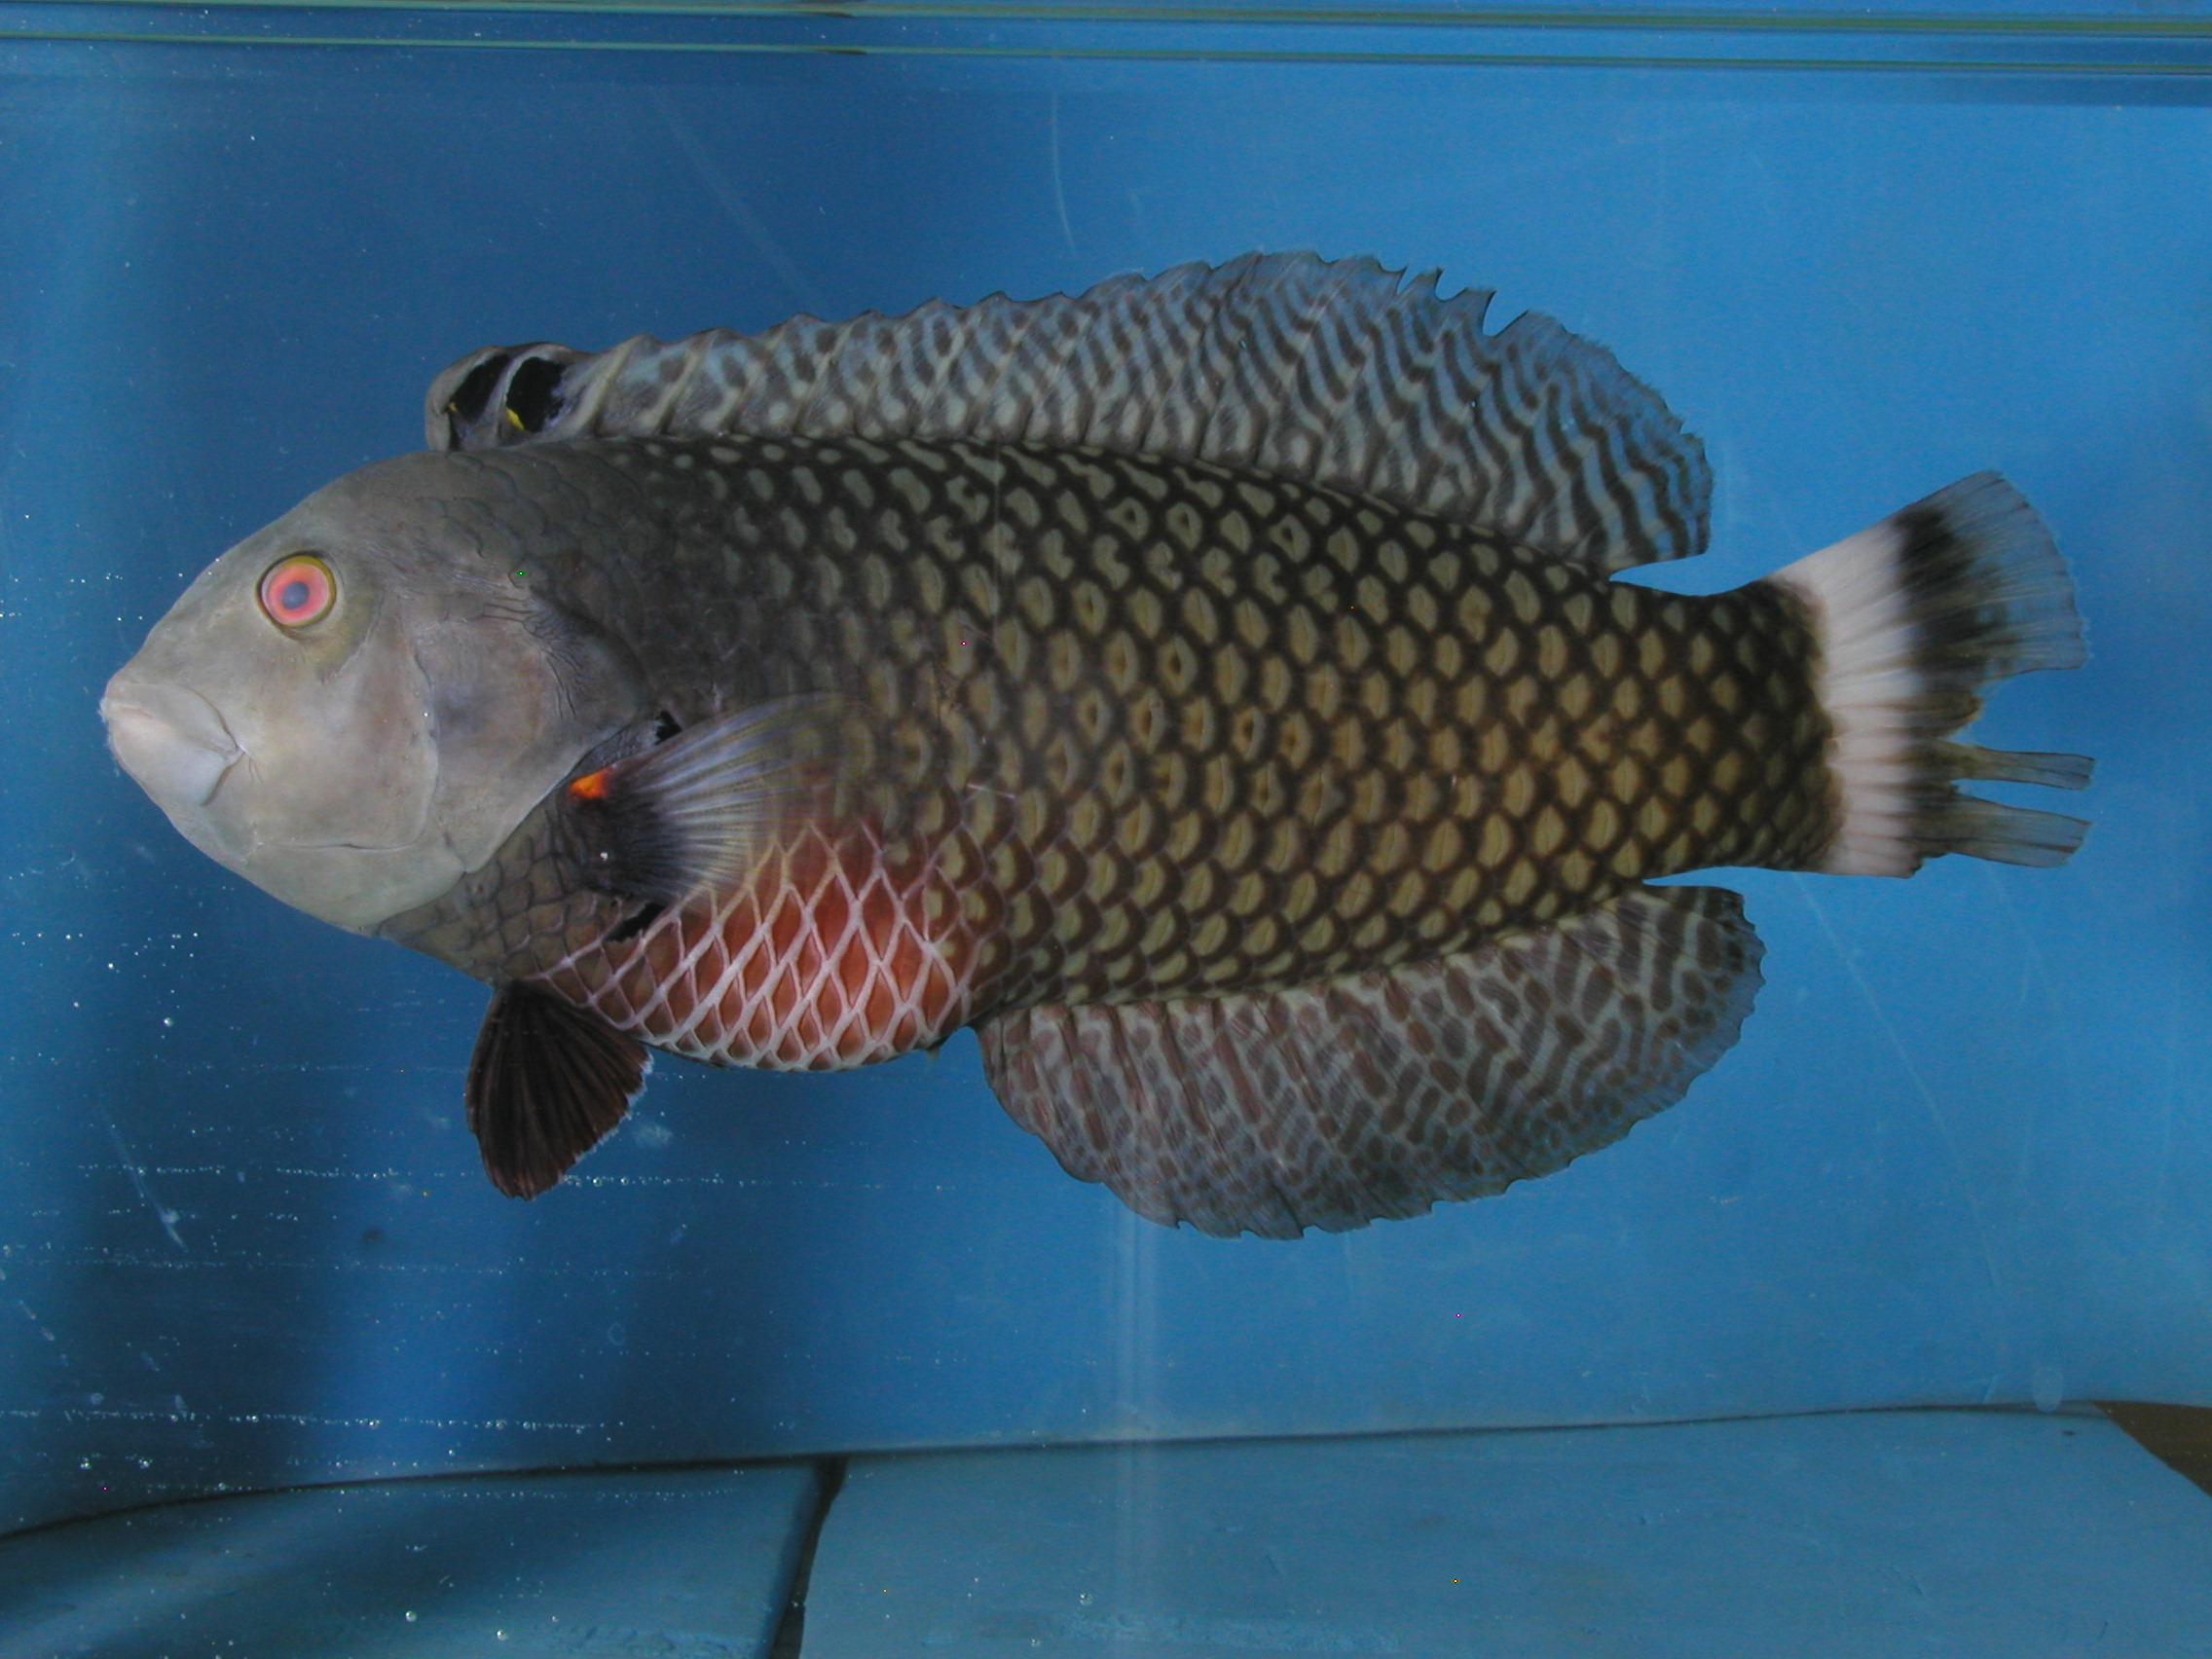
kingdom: Animalia
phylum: Chordata
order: Perciformes
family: Labridae
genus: Novaculichthys
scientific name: Novaculichthys taeniourus
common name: Rockmover wrasse
